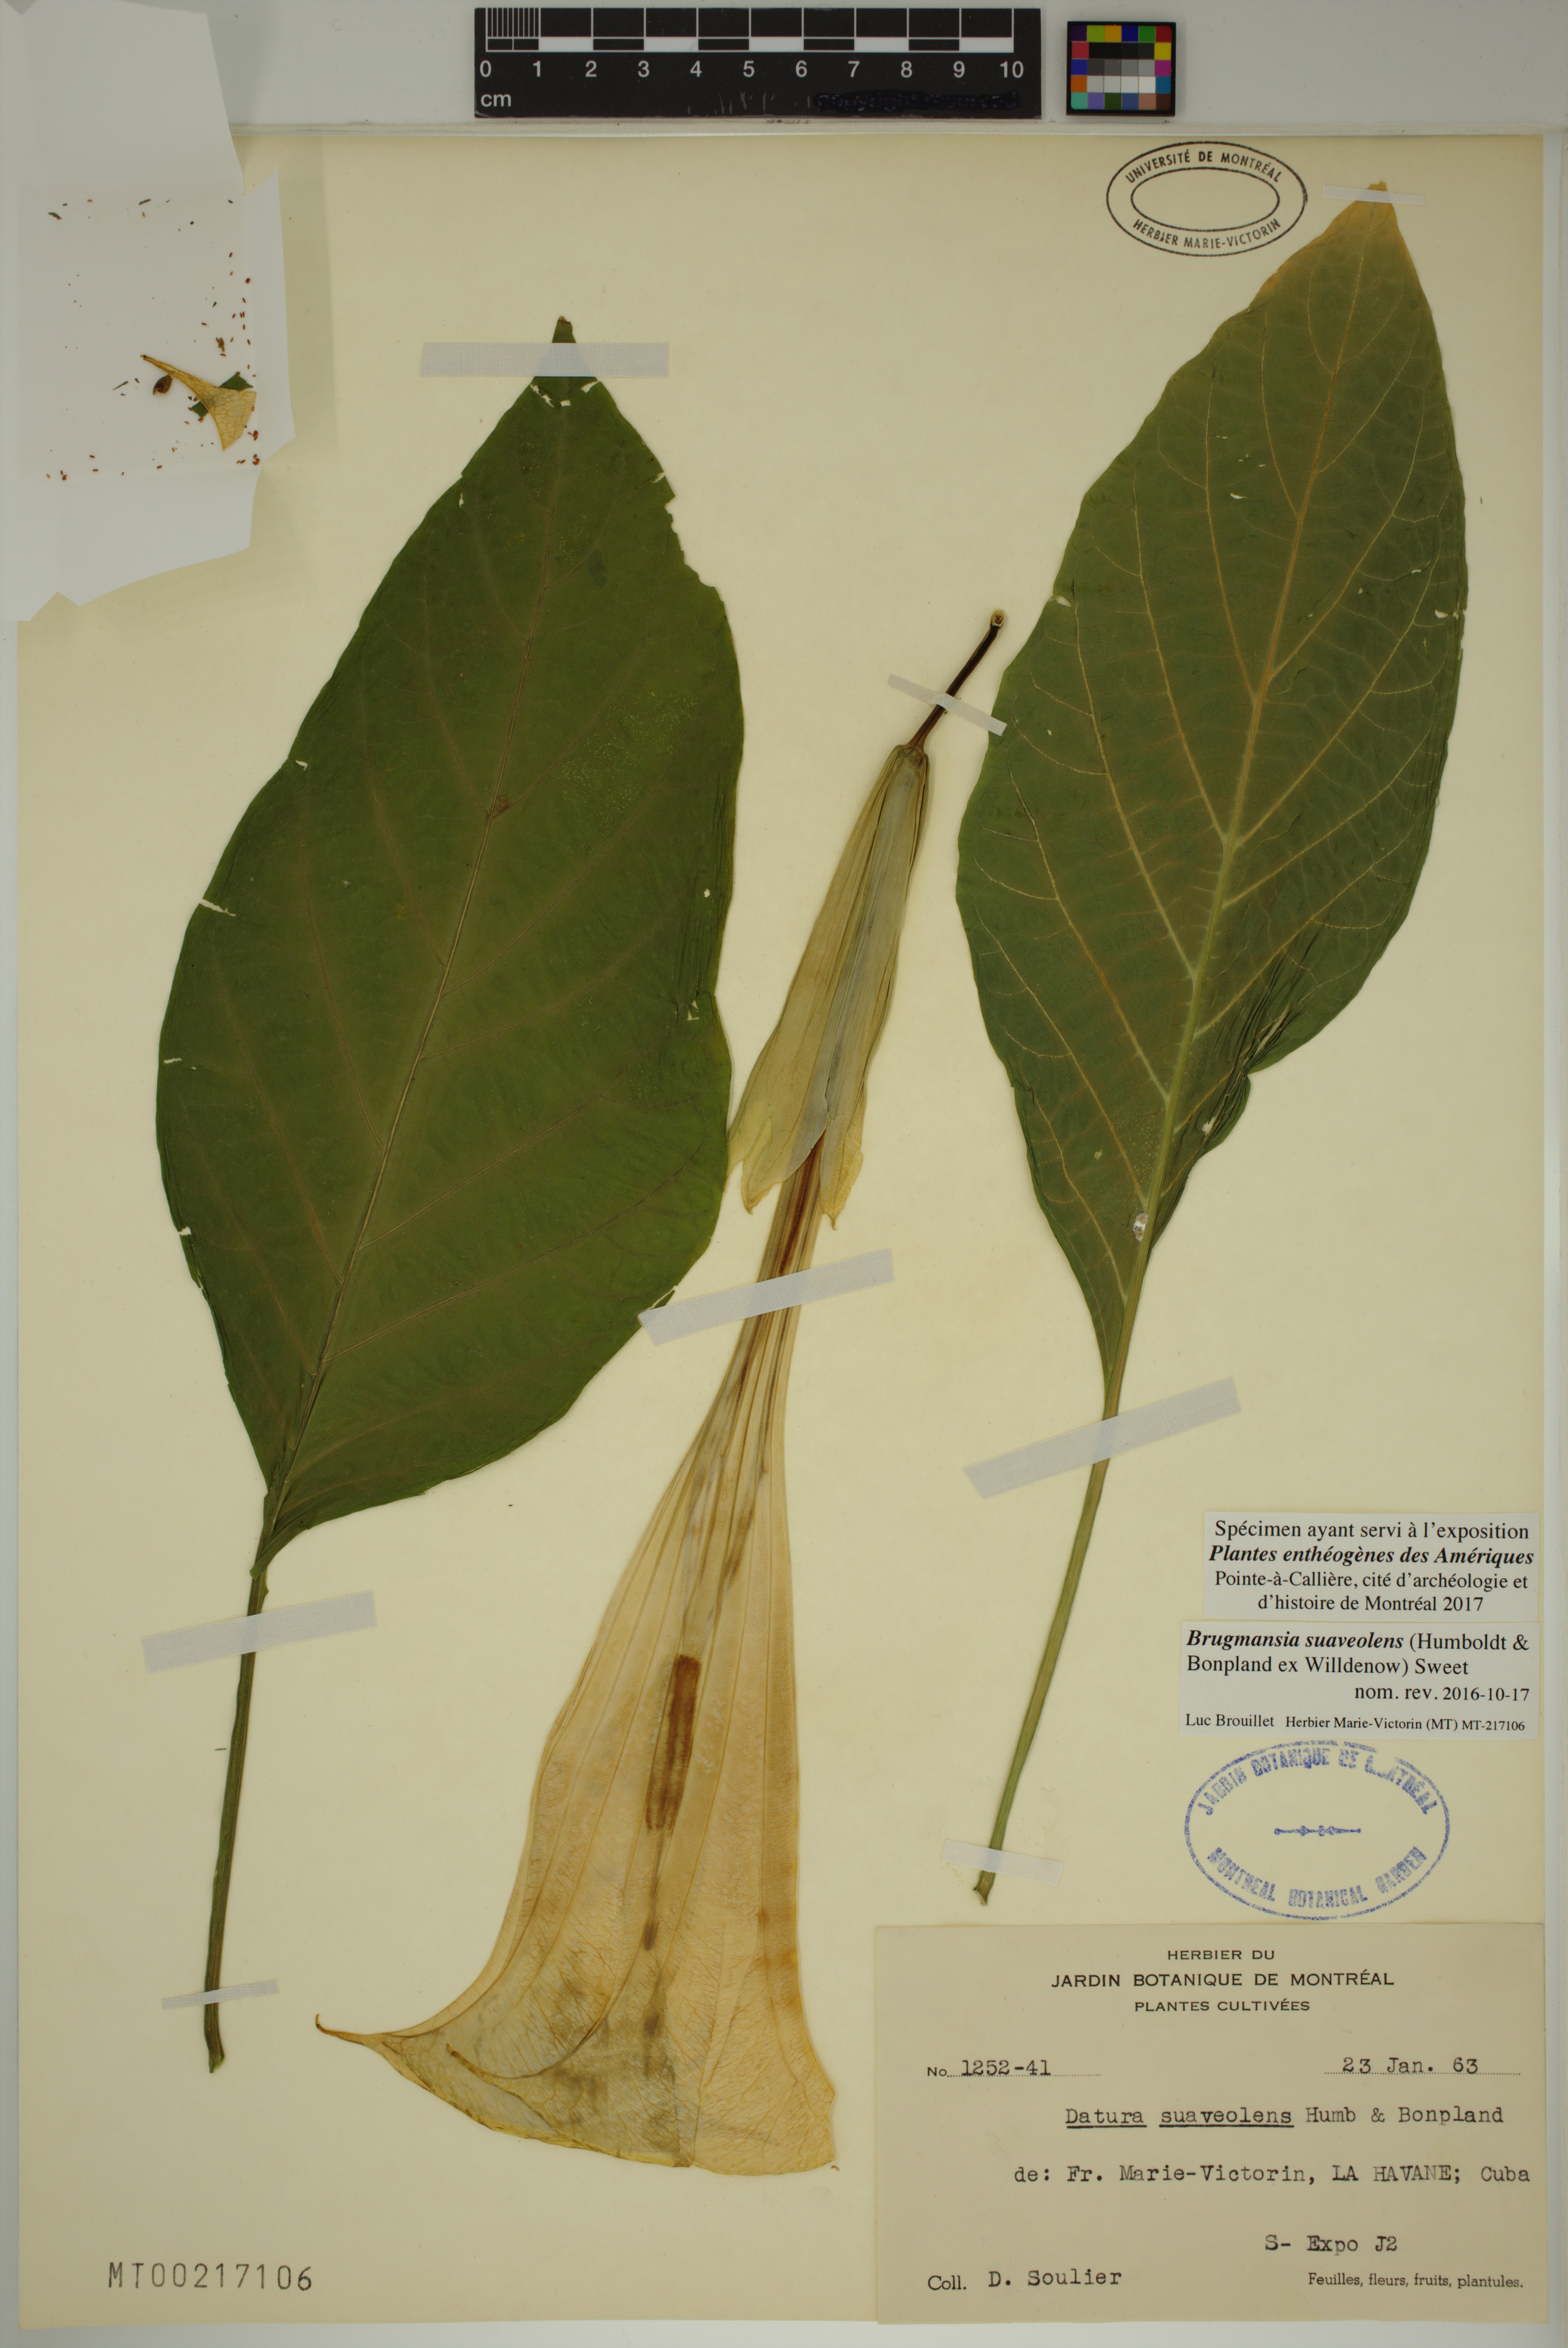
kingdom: Plantae
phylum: Tracheophyta
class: Magnoliopsida
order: Solanales
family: Solanaceae
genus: Brugmansia
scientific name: Brugmansia suaveolens
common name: Angel's tears
